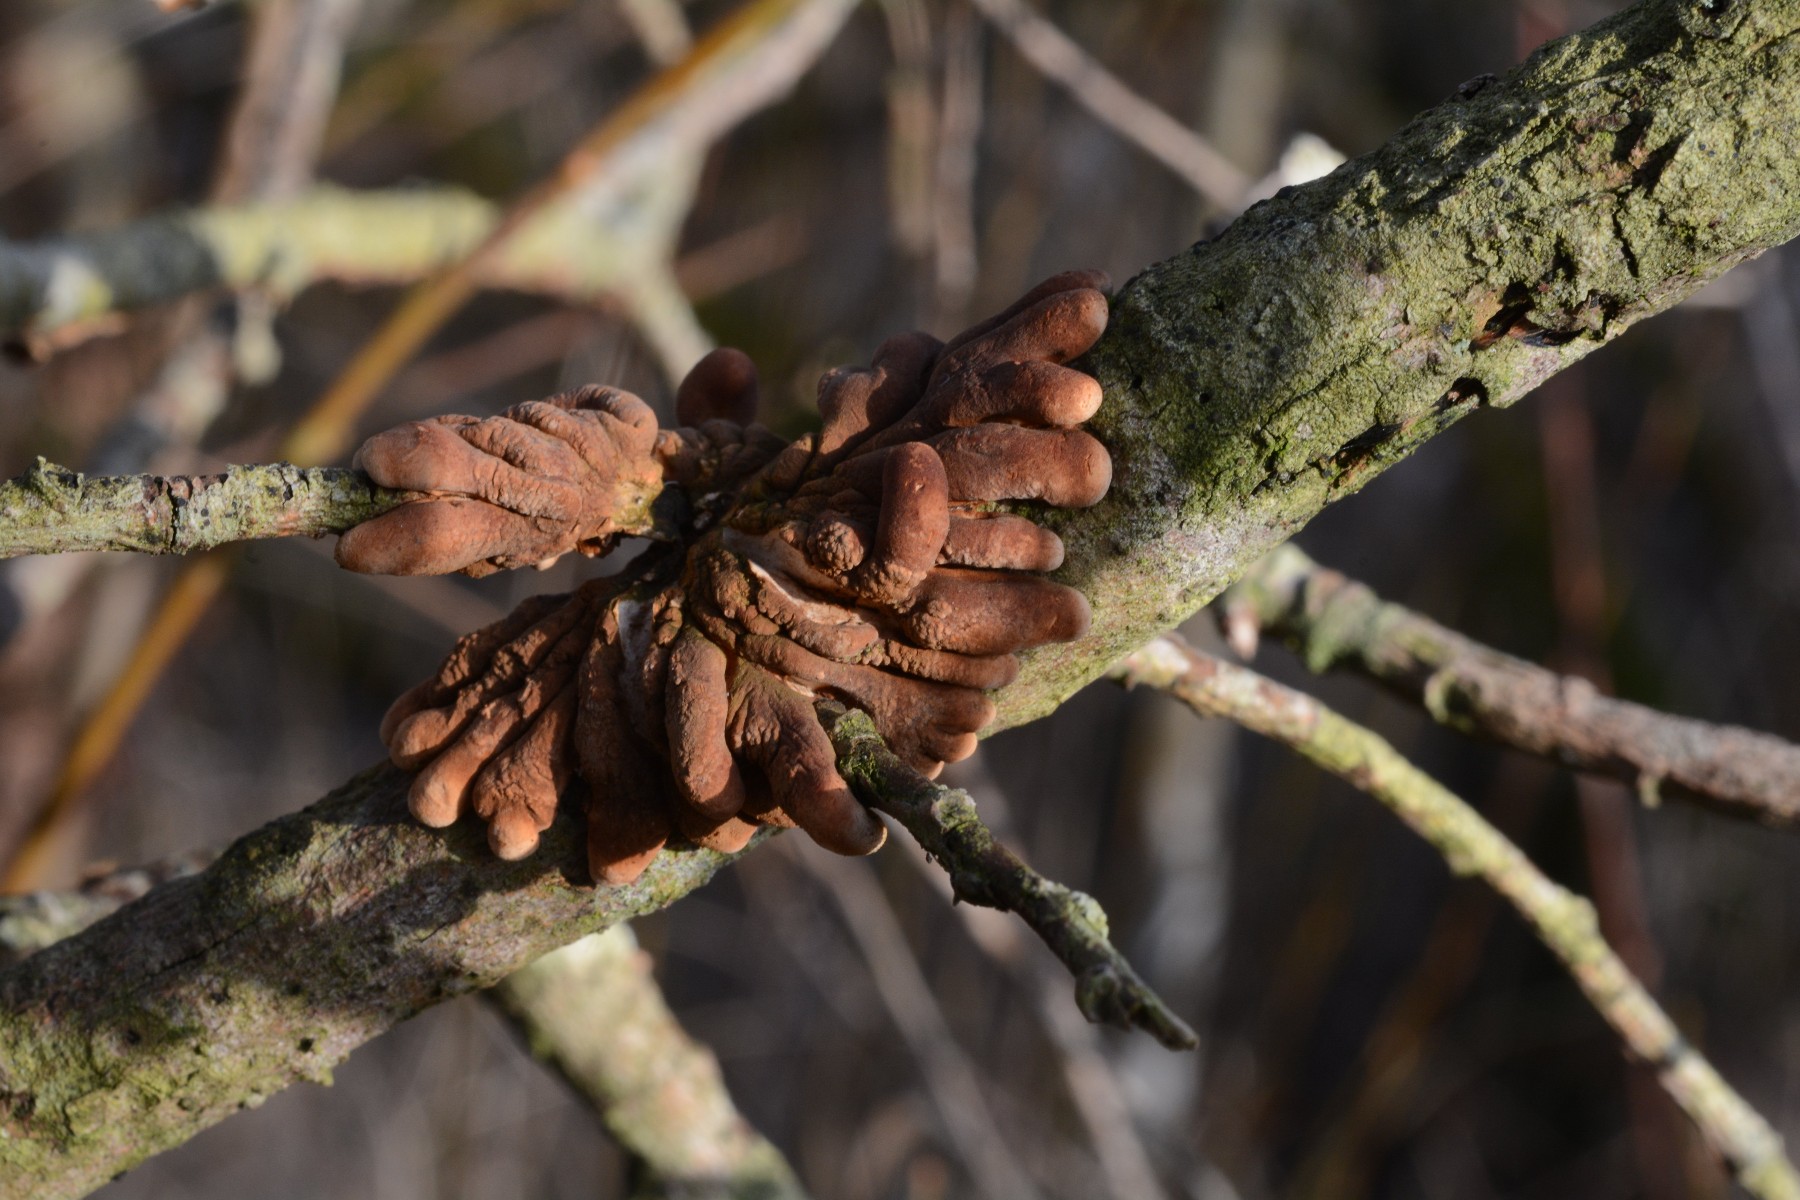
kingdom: Fungi
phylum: Ascomycota
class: Sordariomycetes
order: Hypocreales
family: Hypocreaceae
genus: Hypocreopsis
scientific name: Hypocreopsis lichenoides
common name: pilfinger
